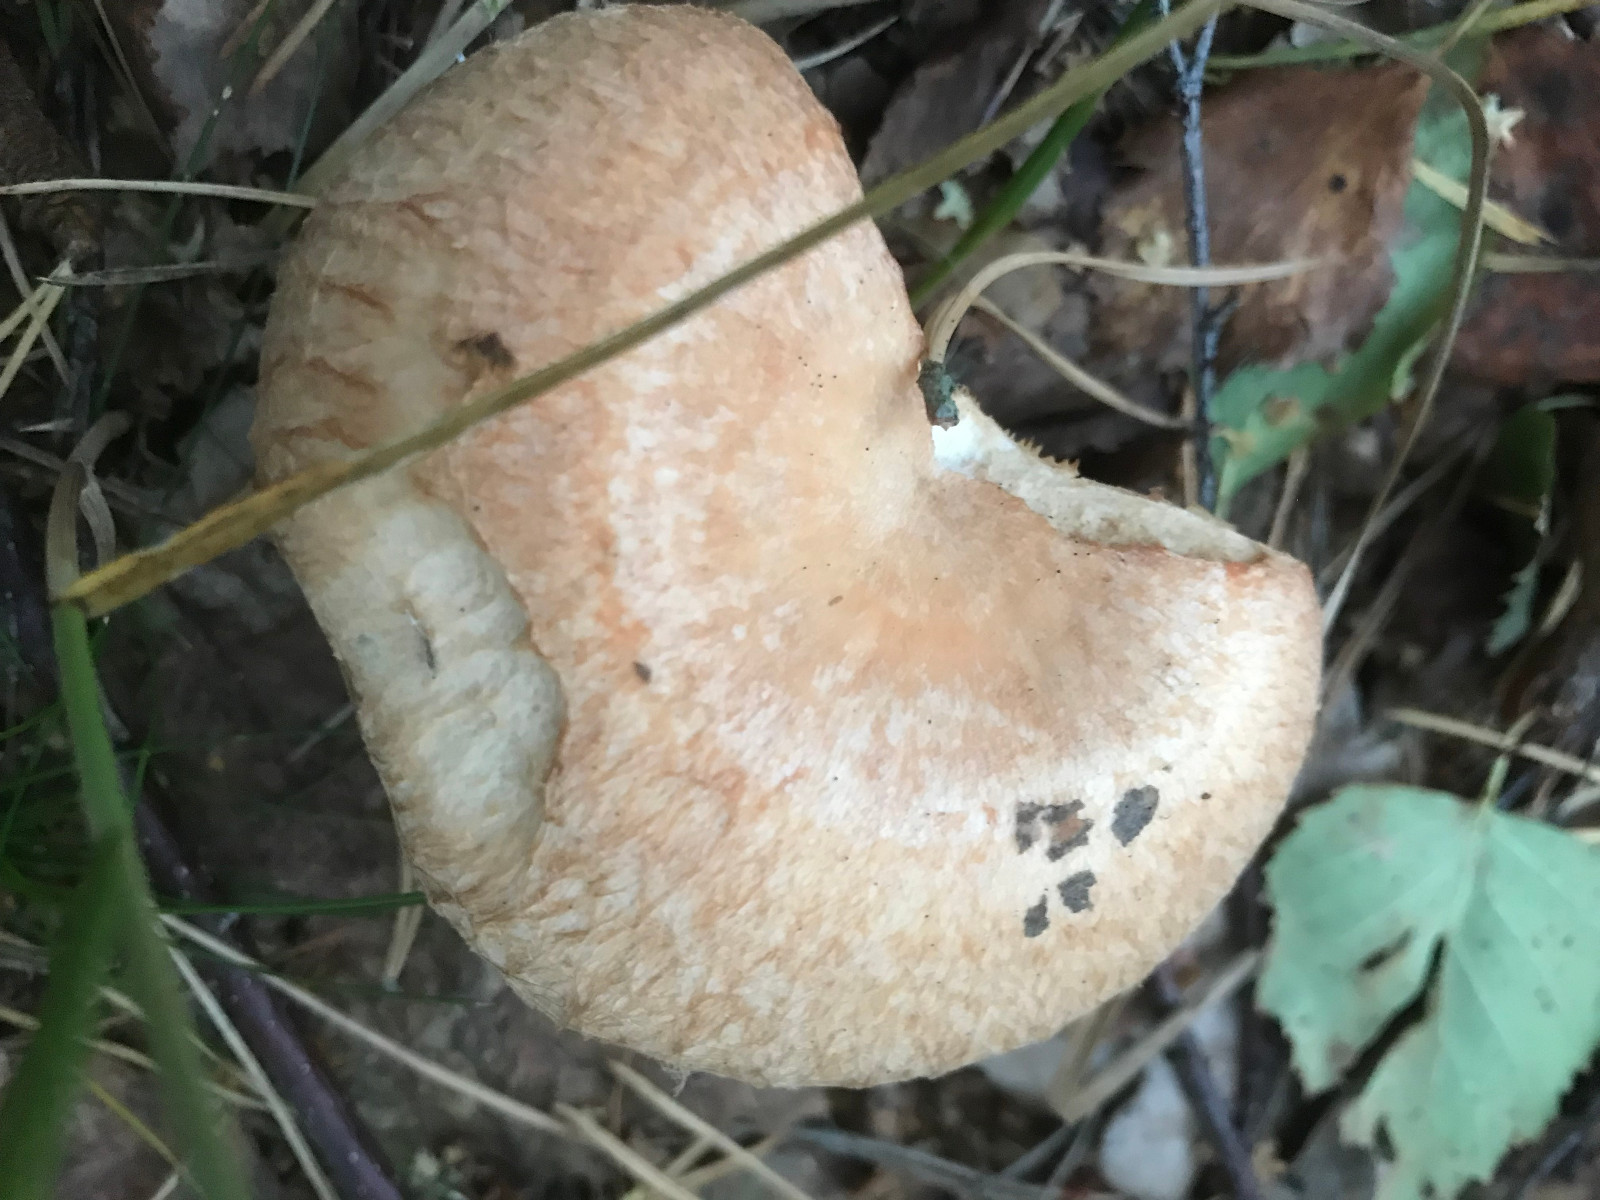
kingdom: Fungi
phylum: Basidiomycota
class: Agaricomycetes
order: Russulales
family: Russulaceae
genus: Lactarius
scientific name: Lactarius pubescens
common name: dunet mælkehat
